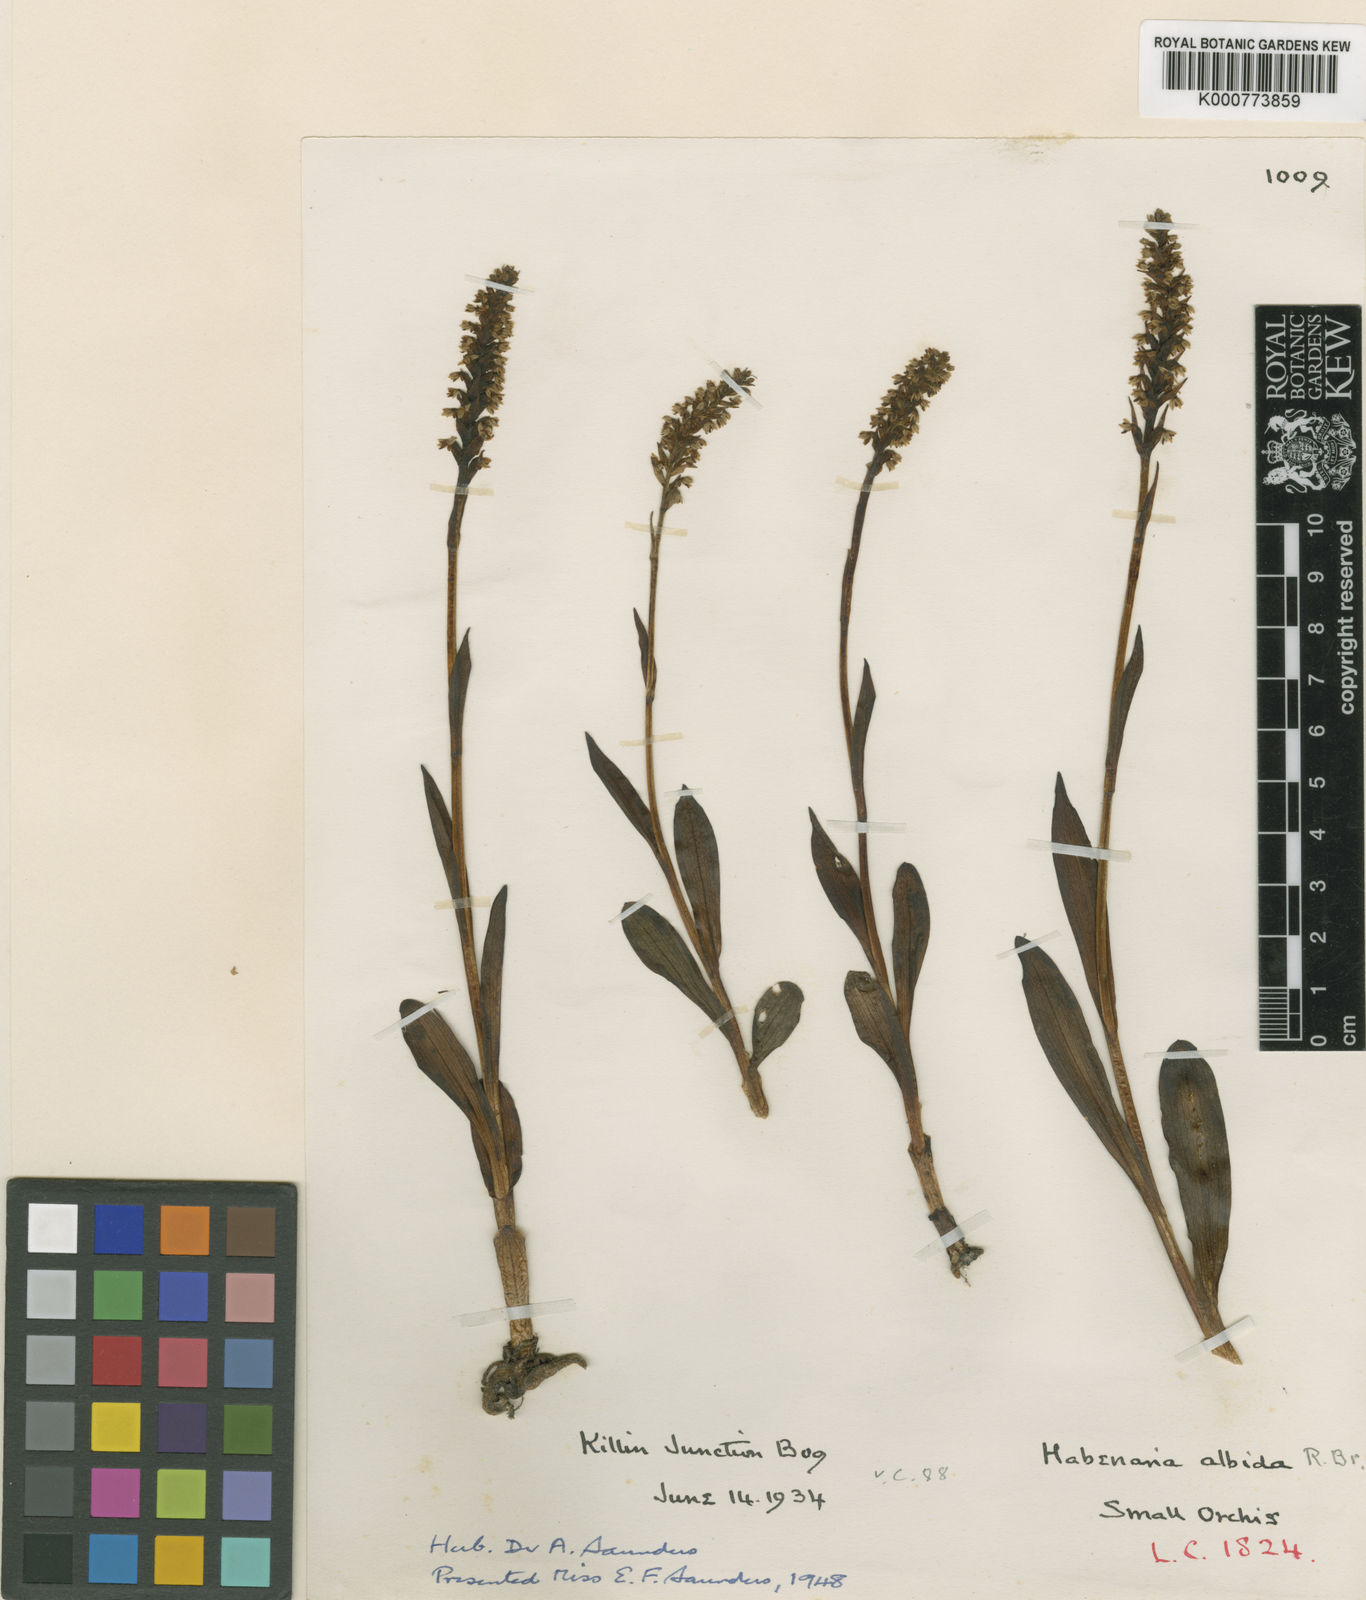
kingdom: Plantae
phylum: Tracheophyta
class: Liliopsida
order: Asparagales
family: Orchidaceae
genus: Pseudorchis
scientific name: Pseudorchis
